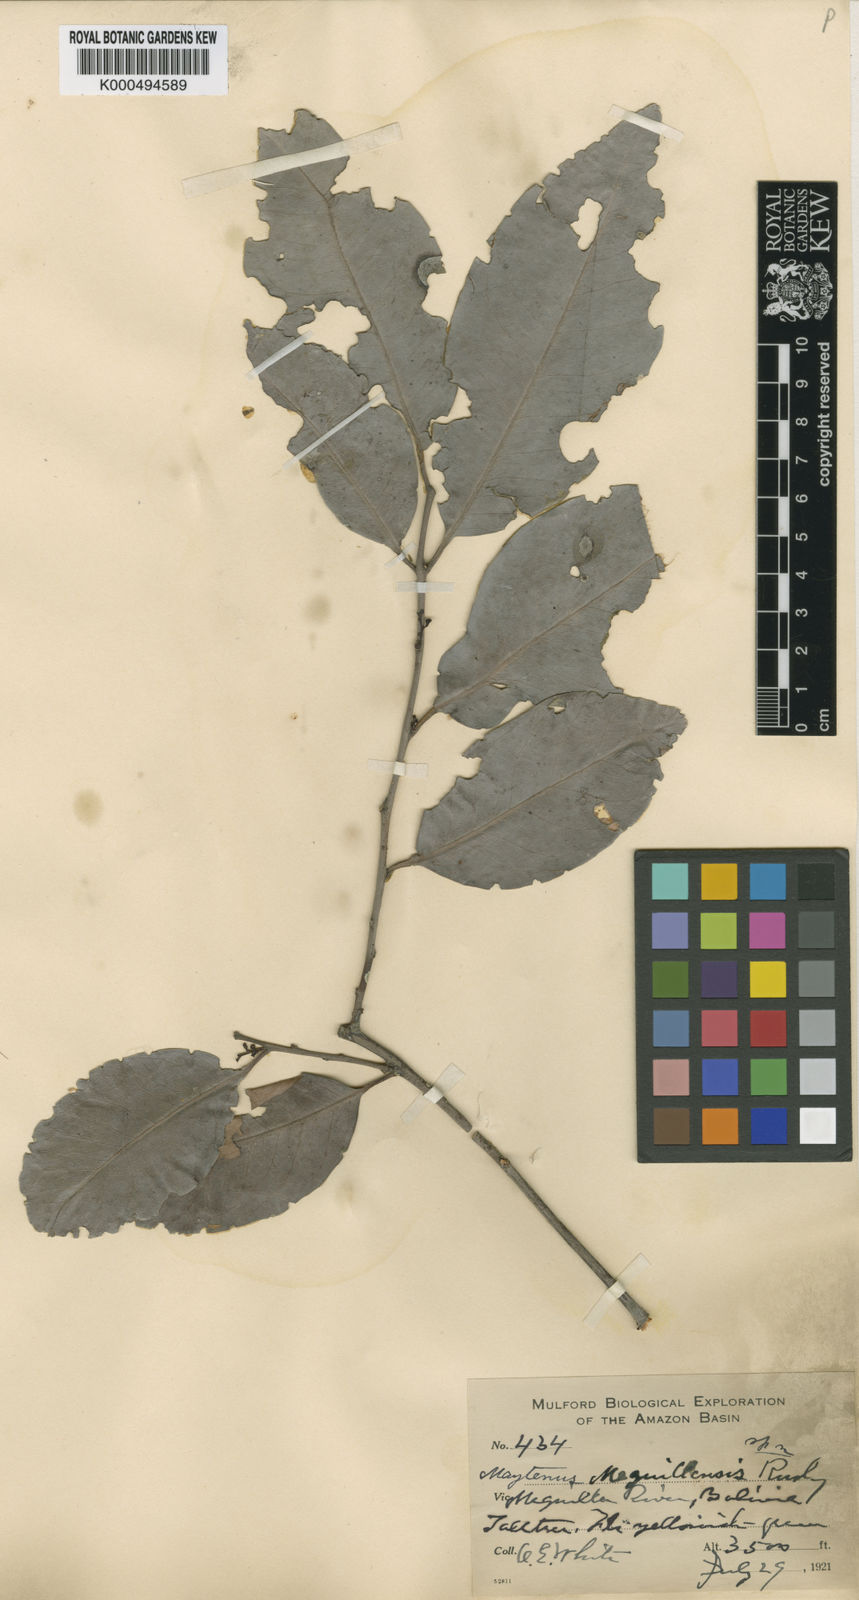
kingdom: Plantae
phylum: Tracheophyta
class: Magnoliopsida
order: Celastrales
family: Celastraceae
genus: Monteverdia
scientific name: Monteverdia meguillensis
